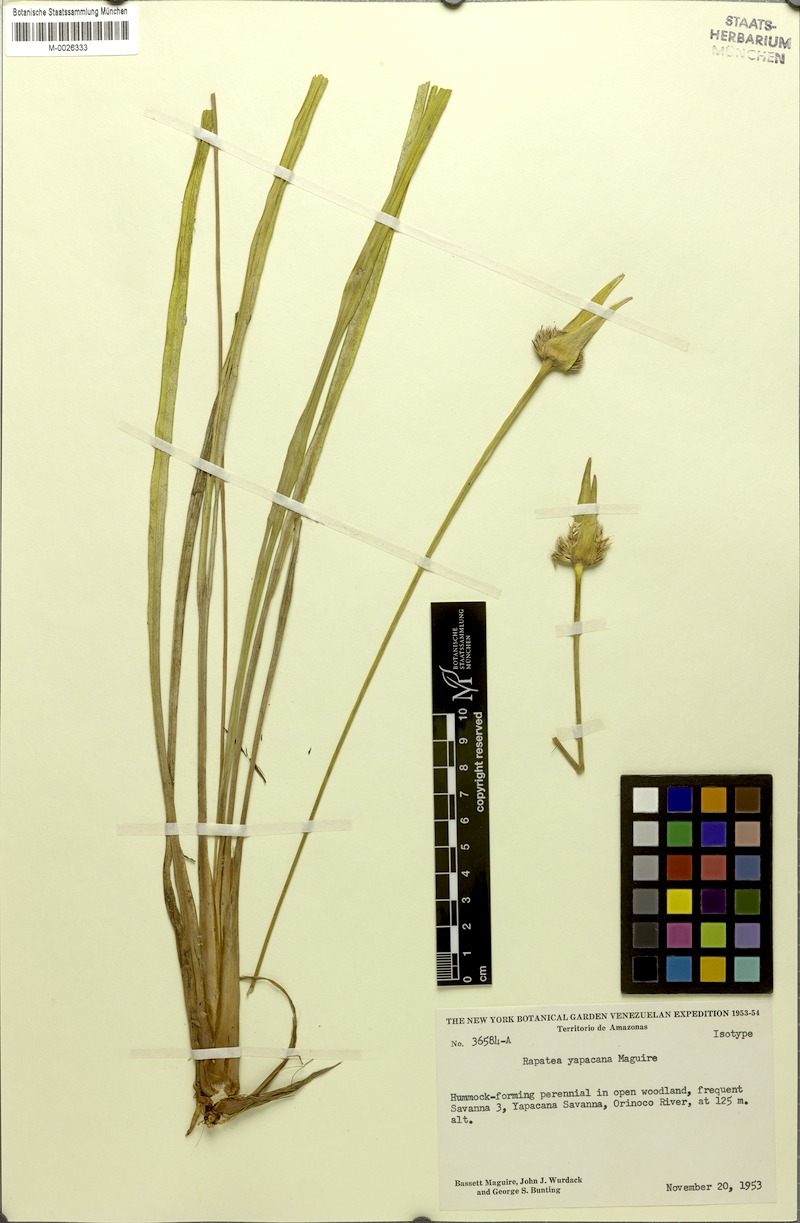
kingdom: Plantae
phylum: Tracheophyta
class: Liliopsida
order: Poales
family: Rapateaceae
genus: Rapatea
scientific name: Rapatea yapacana
